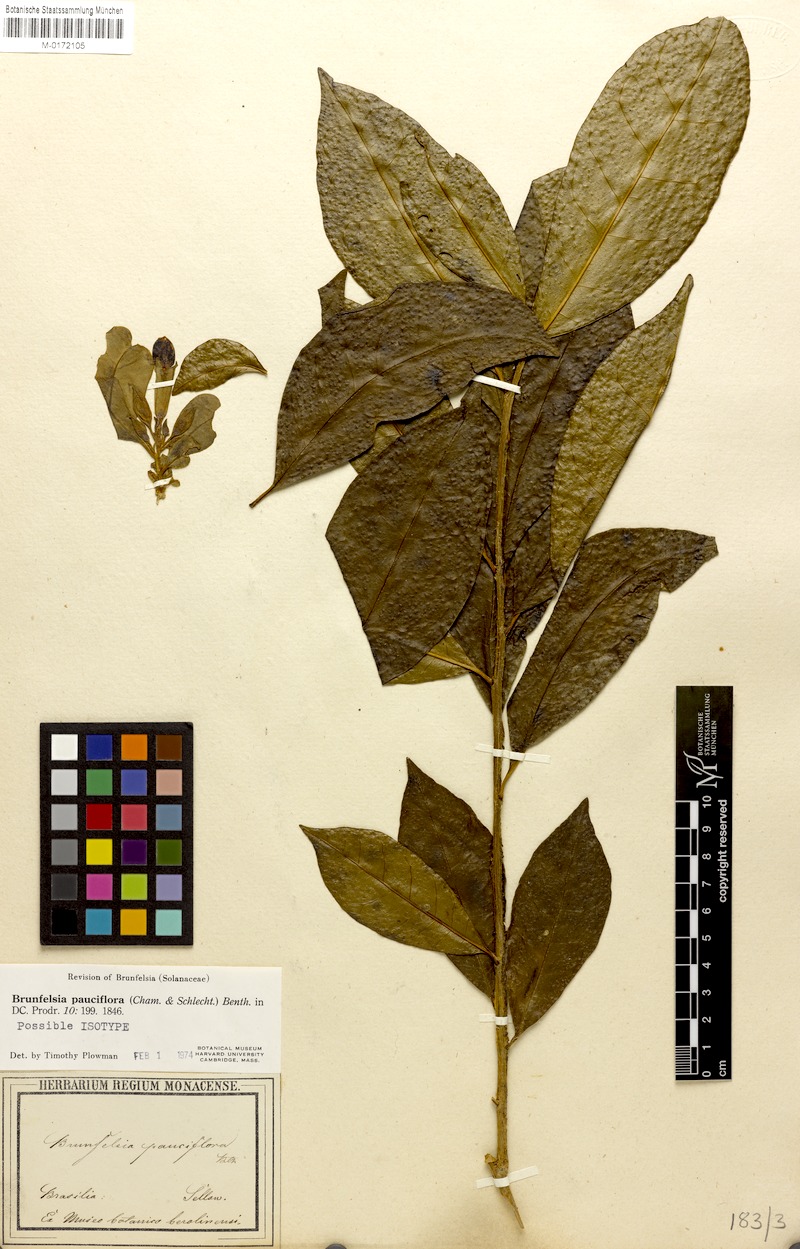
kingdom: Plantae
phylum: Tracheophyta
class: Magnoliopsida
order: Solanales
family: Solanaceae
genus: Brunfelsia
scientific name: Brunfelsia pauciflora
